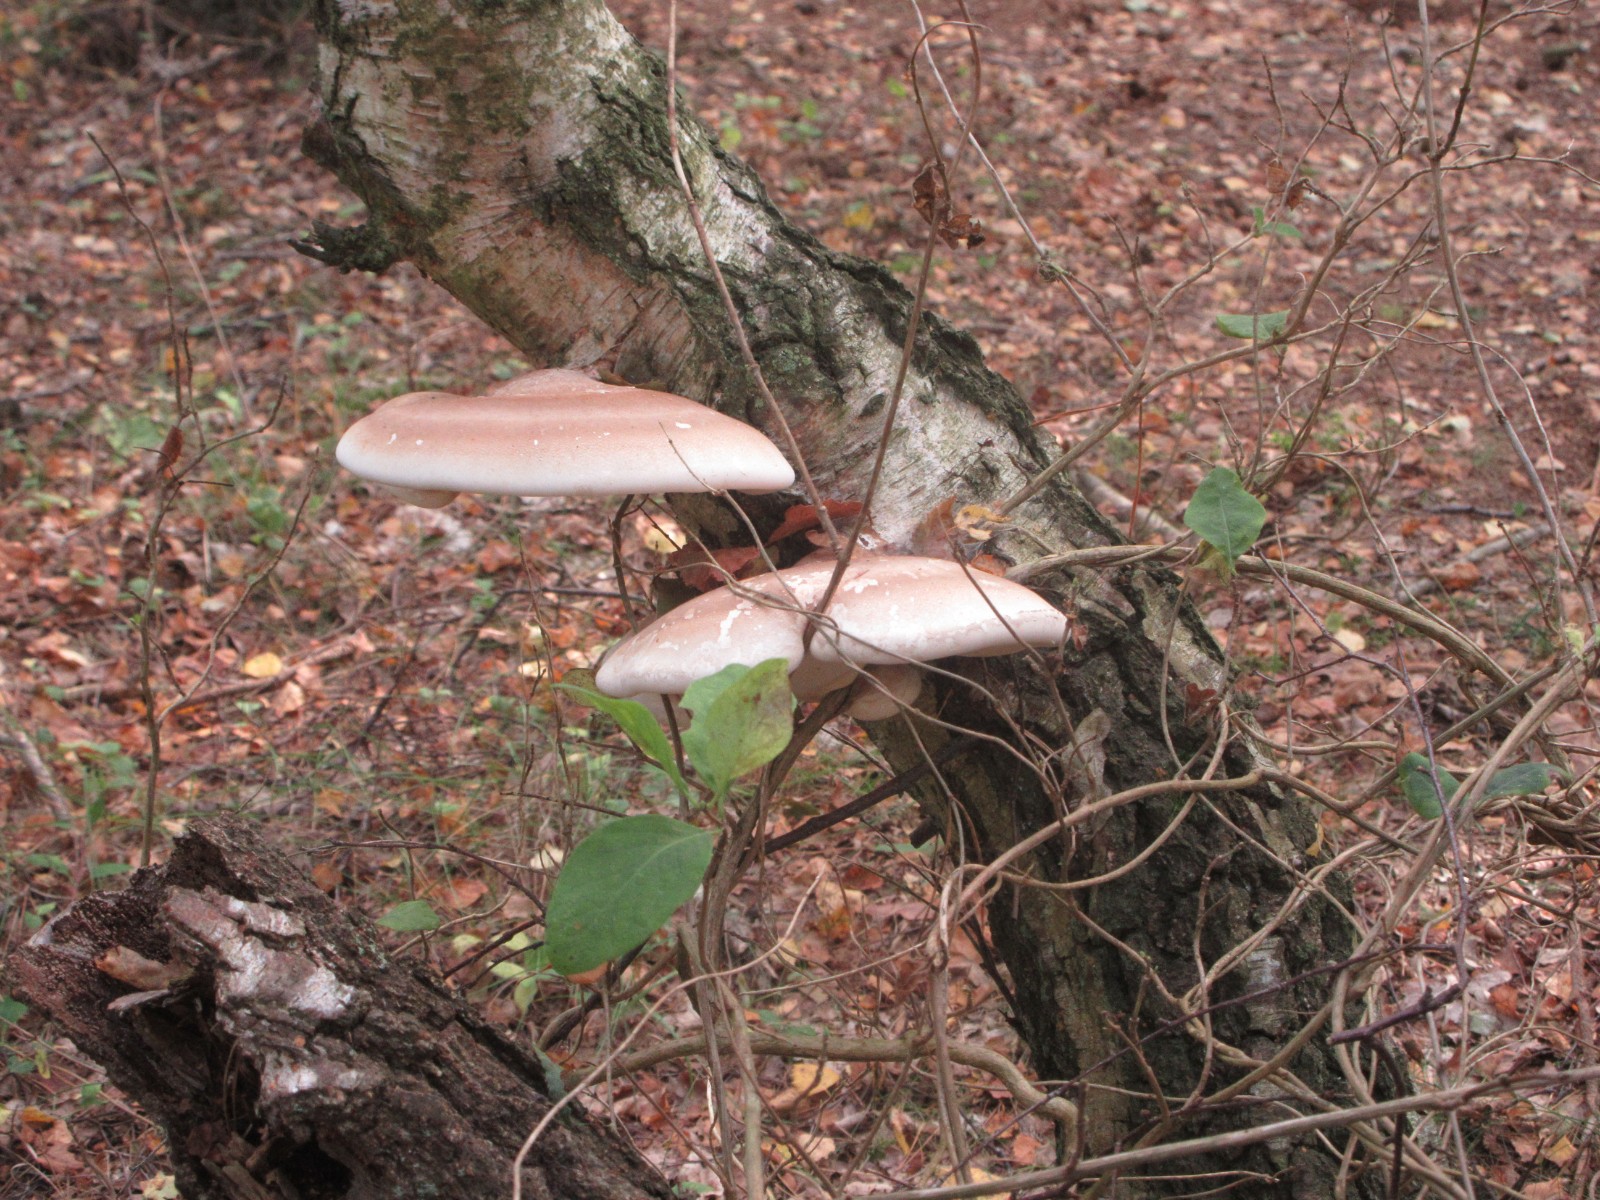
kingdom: Fungi
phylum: Basidiomycota
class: Agaricomycetes
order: Polyporales
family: Fomitopsidaceae
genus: Fomitopsis
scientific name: Fomitopsis betulina
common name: birkeporesvamp
